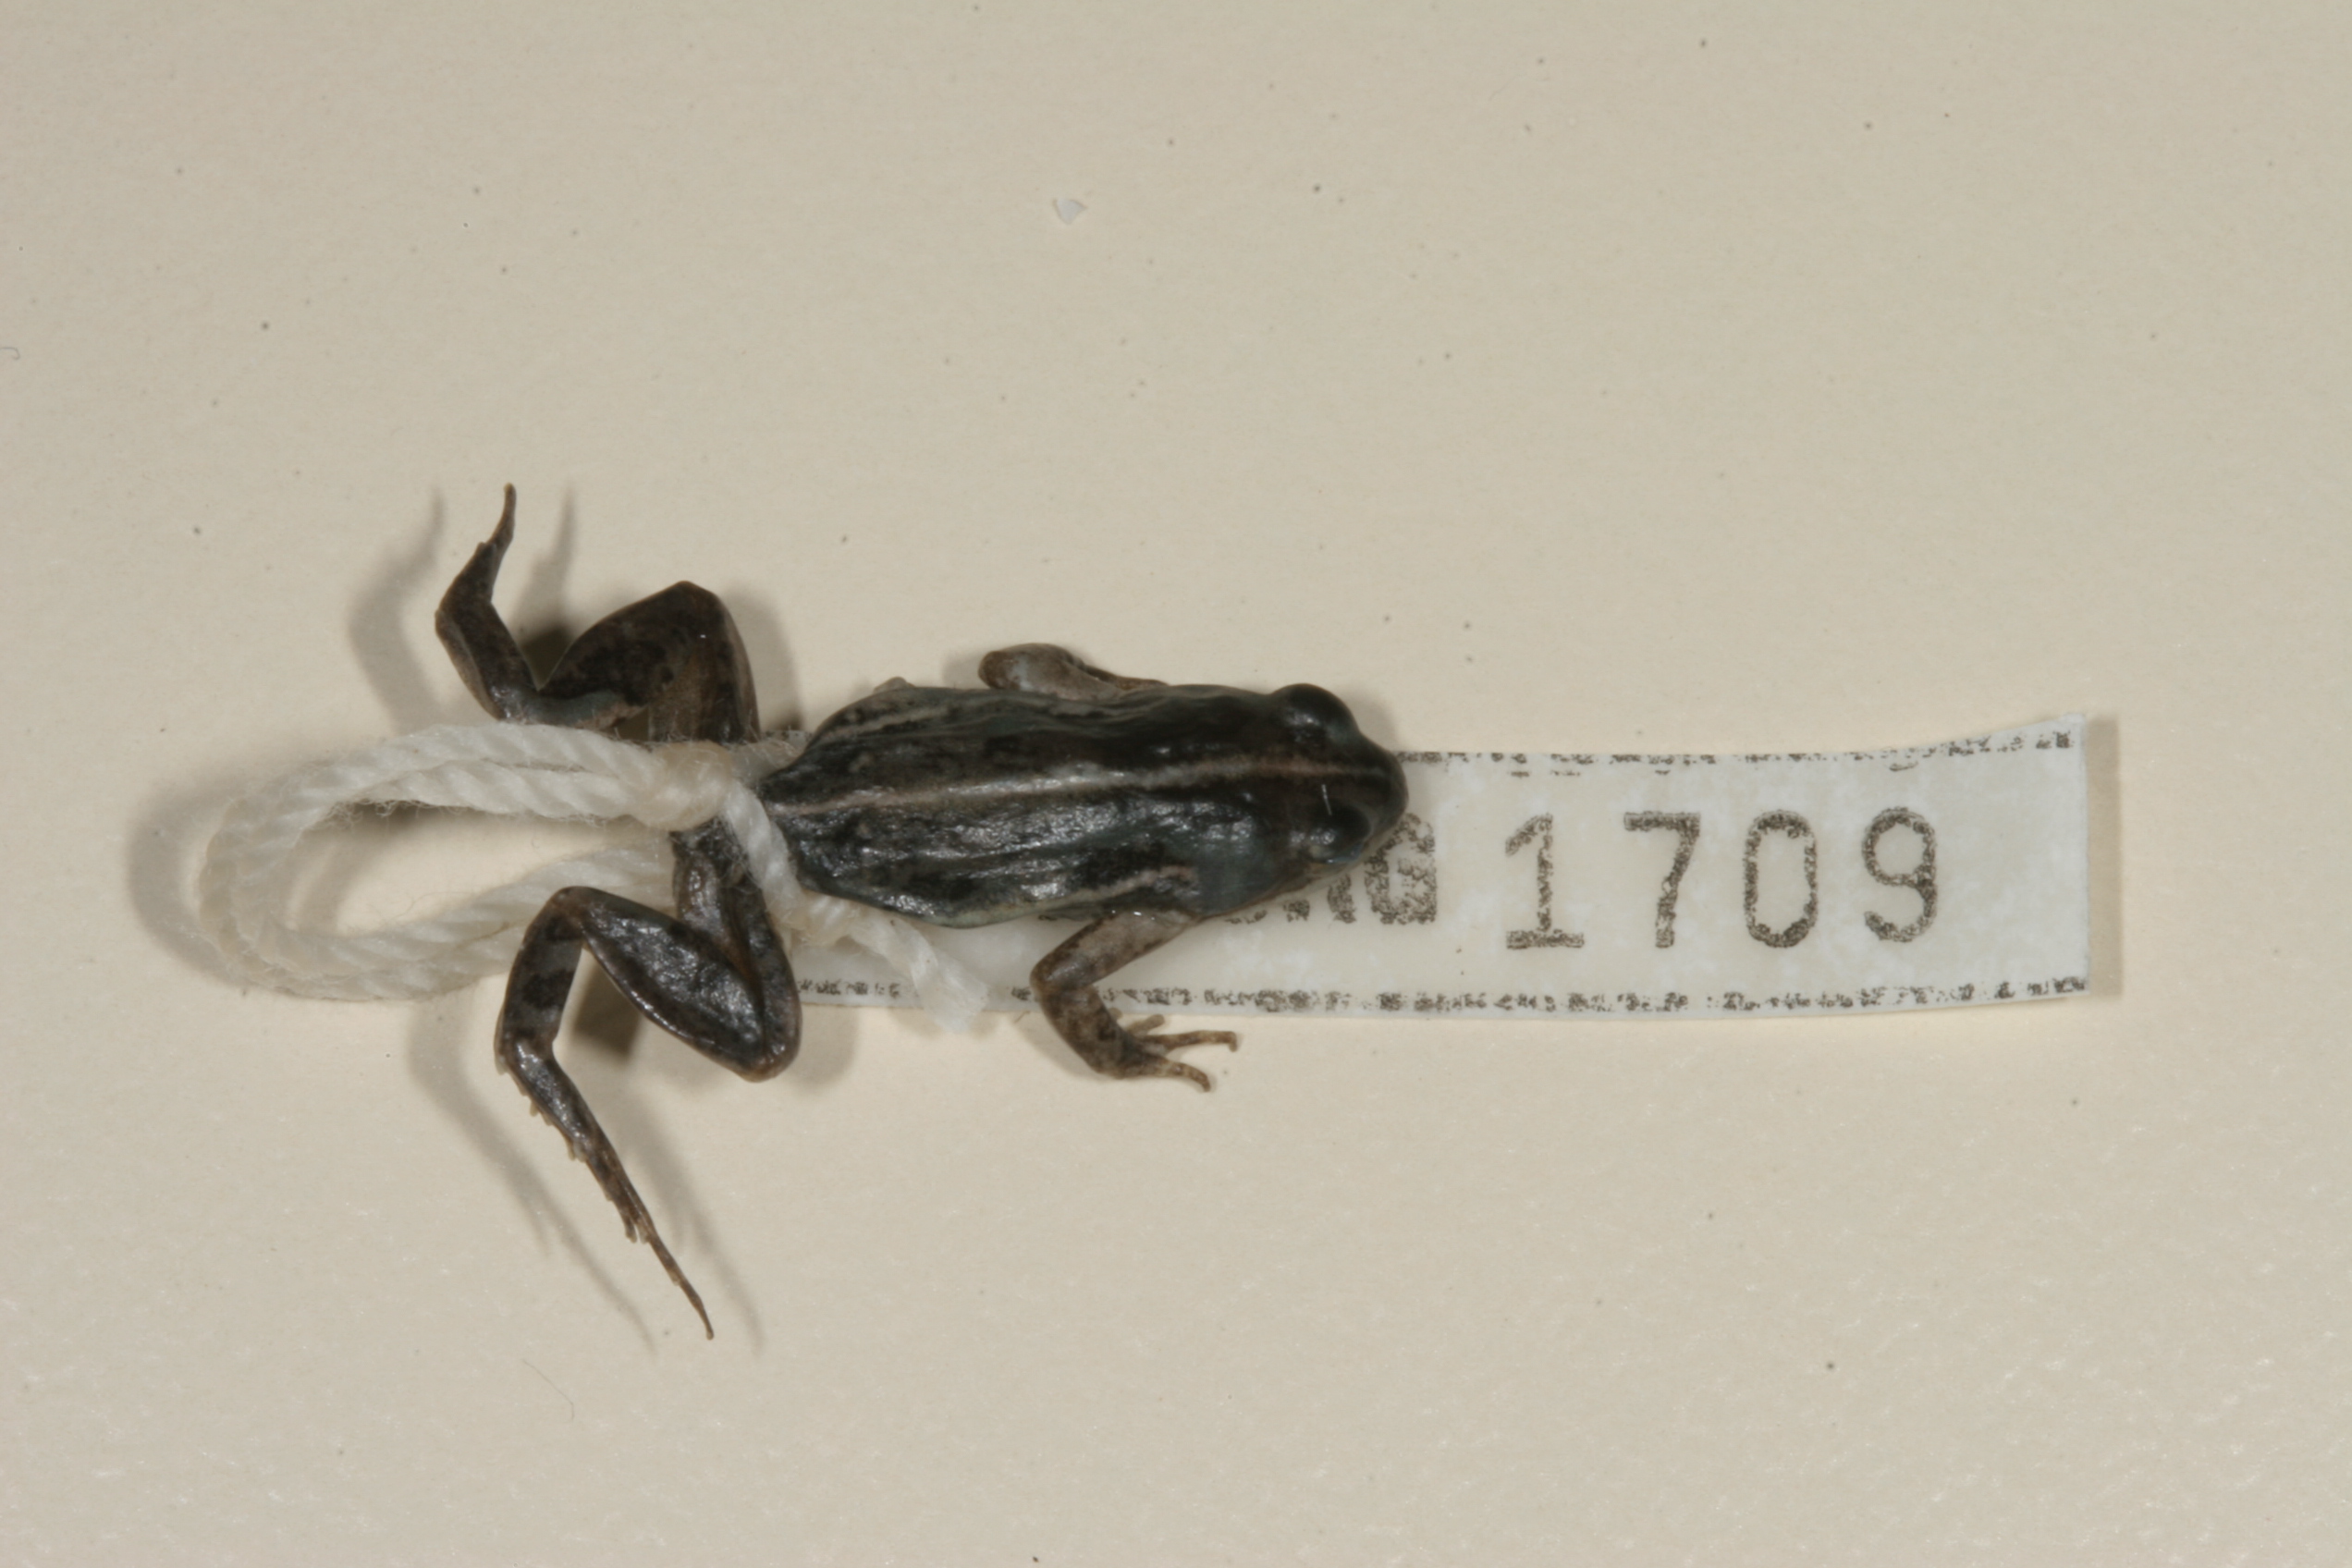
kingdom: Animalia
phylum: Chordata
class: Amphibia
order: Anura
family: Pyxicephalidae
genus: Cacosternum
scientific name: Cacosternum boettgeri
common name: Boettger's frog
